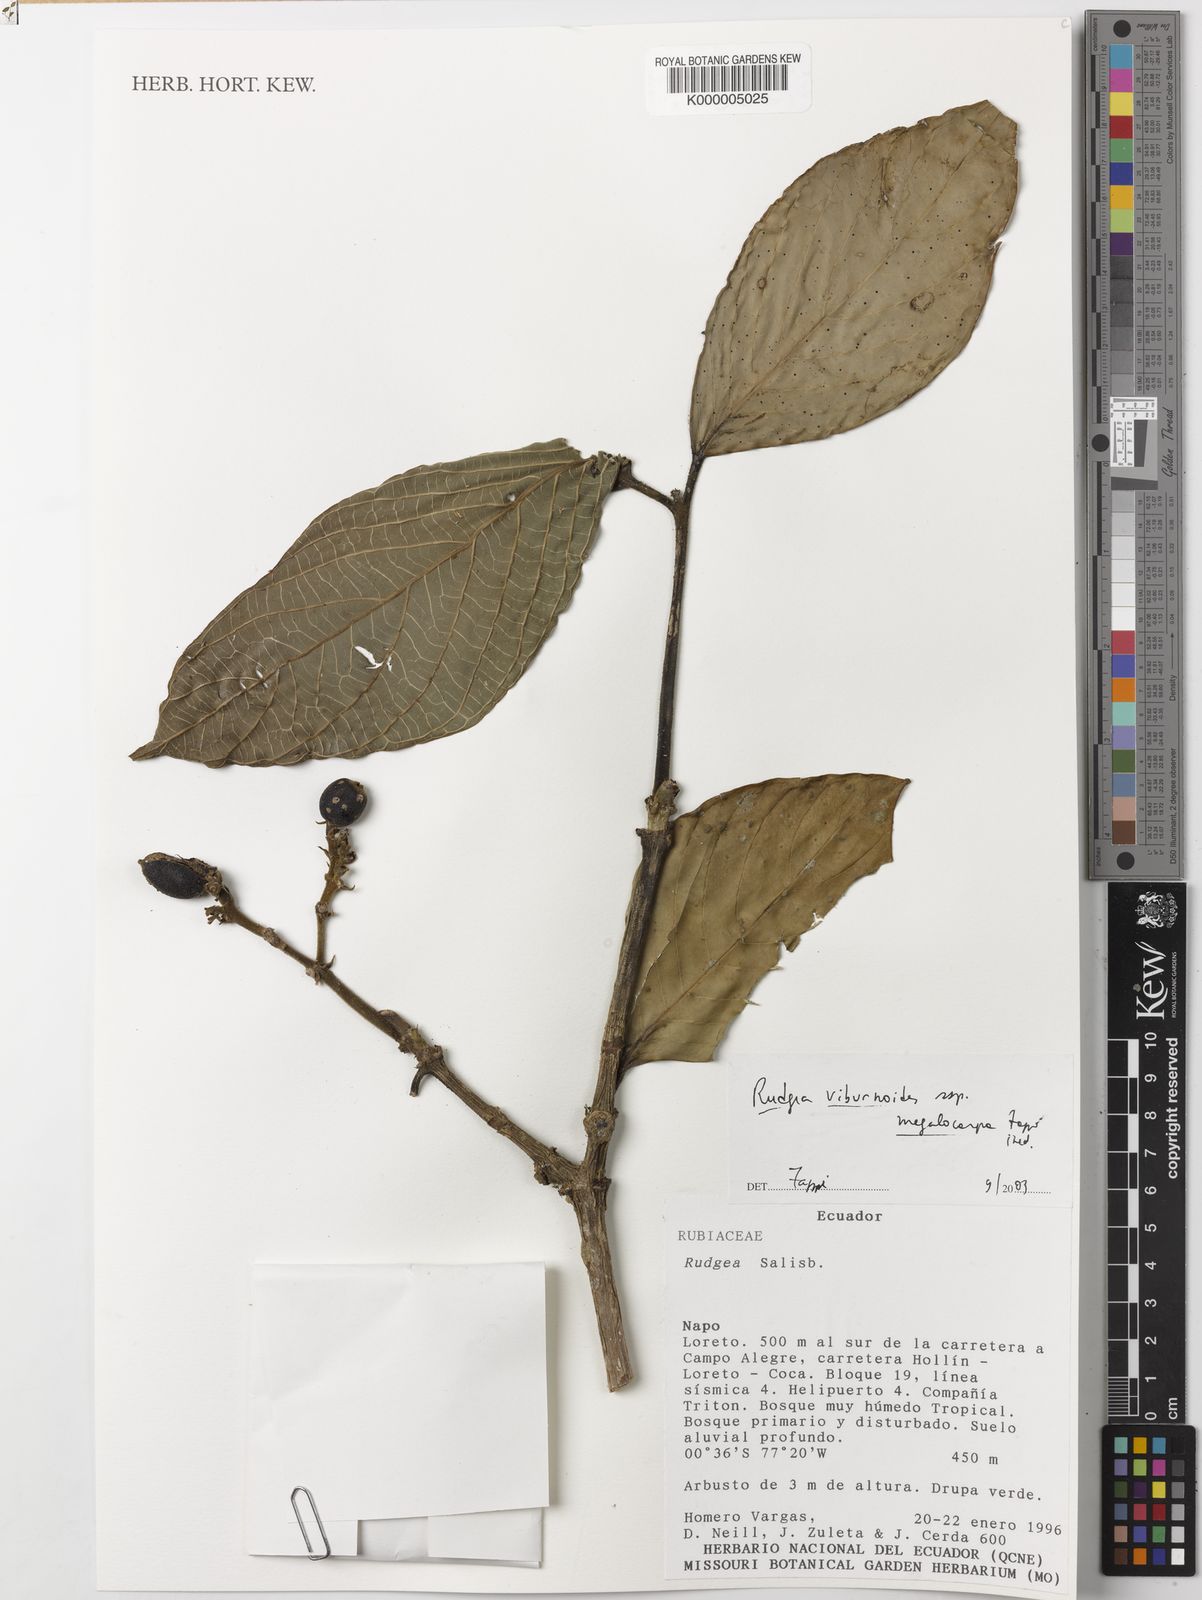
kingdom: Plantae
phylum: Tracheophyta
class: Magnoliopsida
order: Gentianales
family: Rubiaceae
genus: Rudgea
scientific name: Rudgea viburnoides
